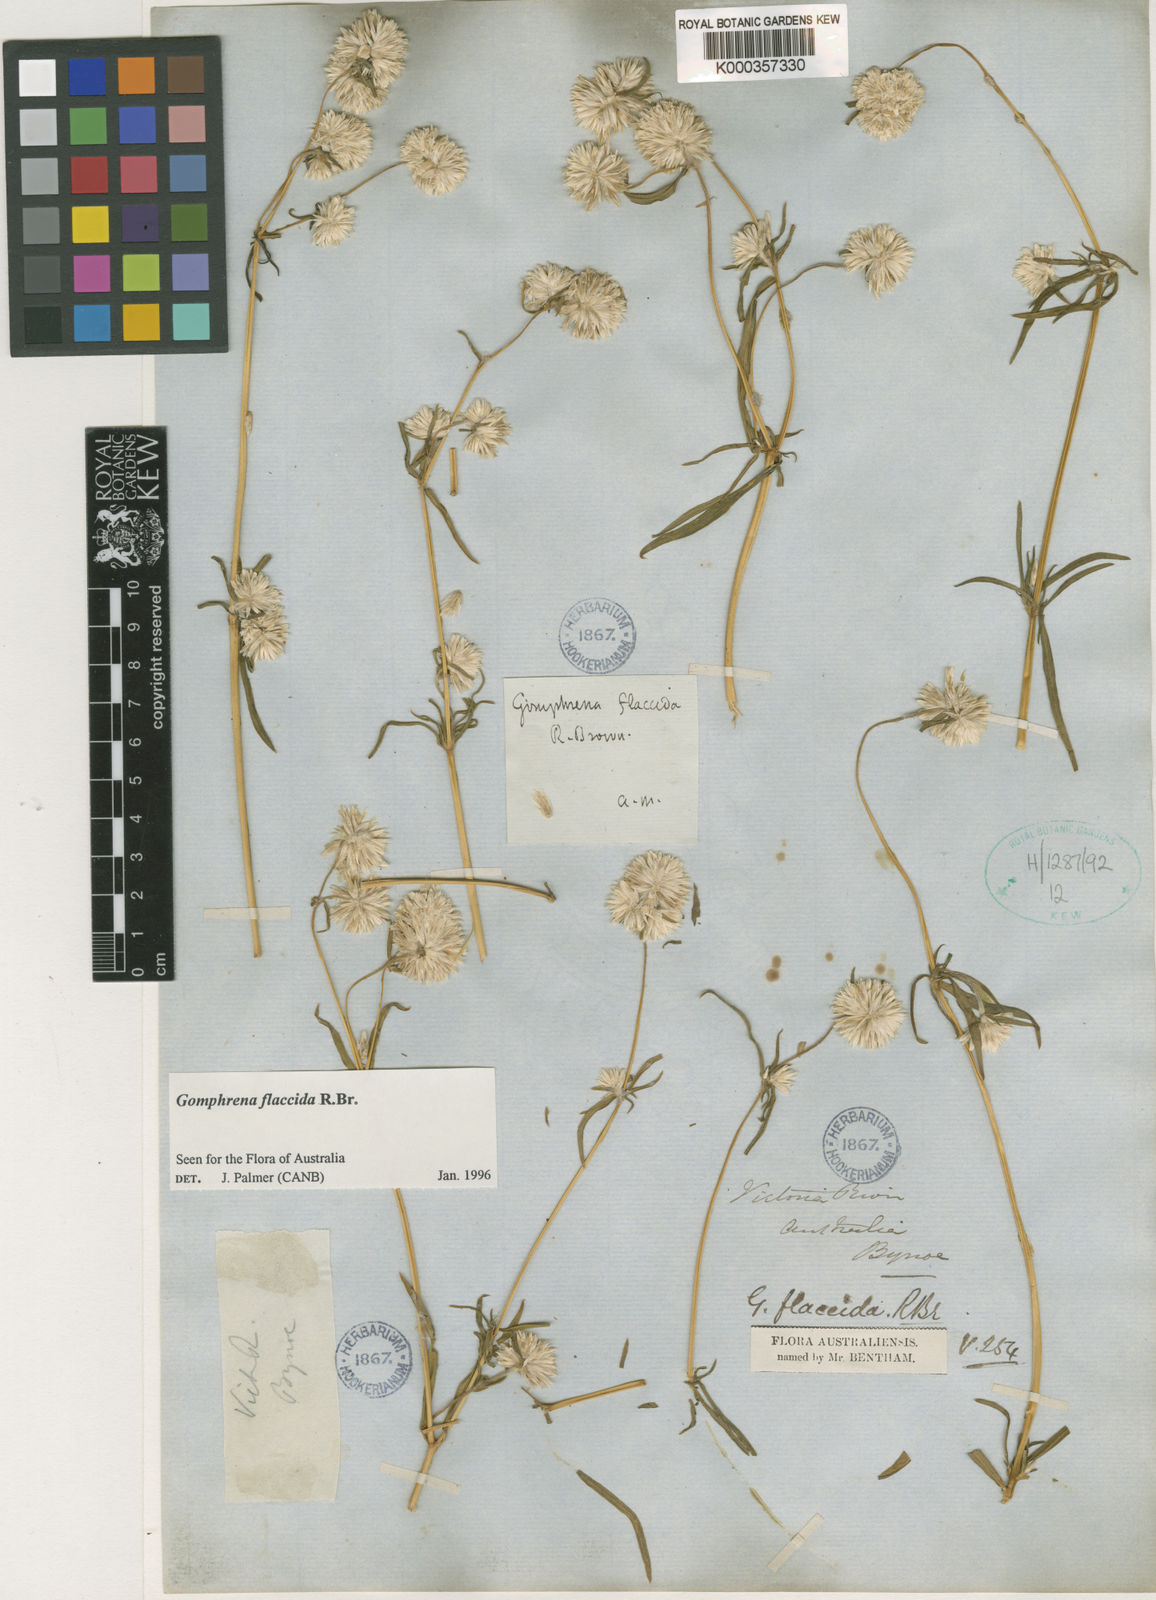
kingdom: Plantae
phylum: Tracheophyta
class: Magnoliopsida
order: Caryophyllales
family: Amaranthaceae
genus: Gomphrena
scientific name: Gomphrena flaccida
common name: Gomphrena-weed
